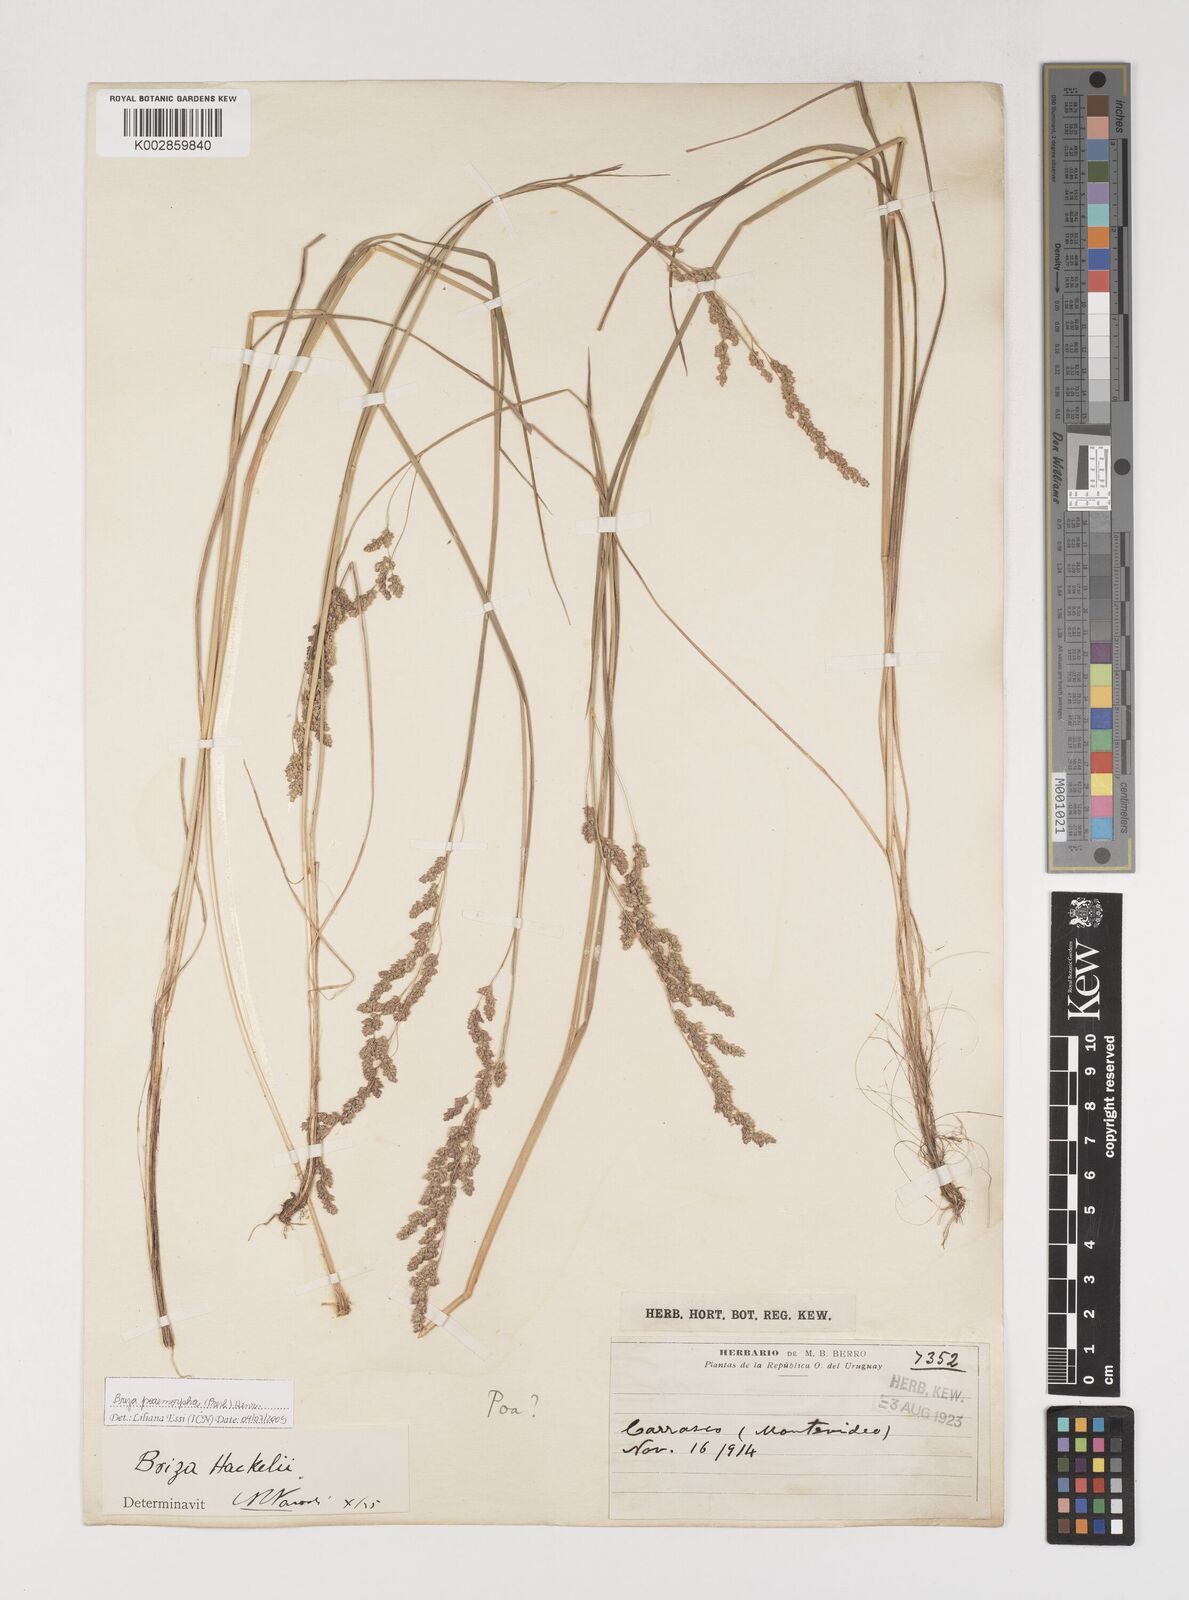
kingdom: Plantae
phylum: Tracheophyta
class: Liliopsida
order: Poales
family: Poaceae
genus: Microbriza
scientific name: Microbriza poimorpha
